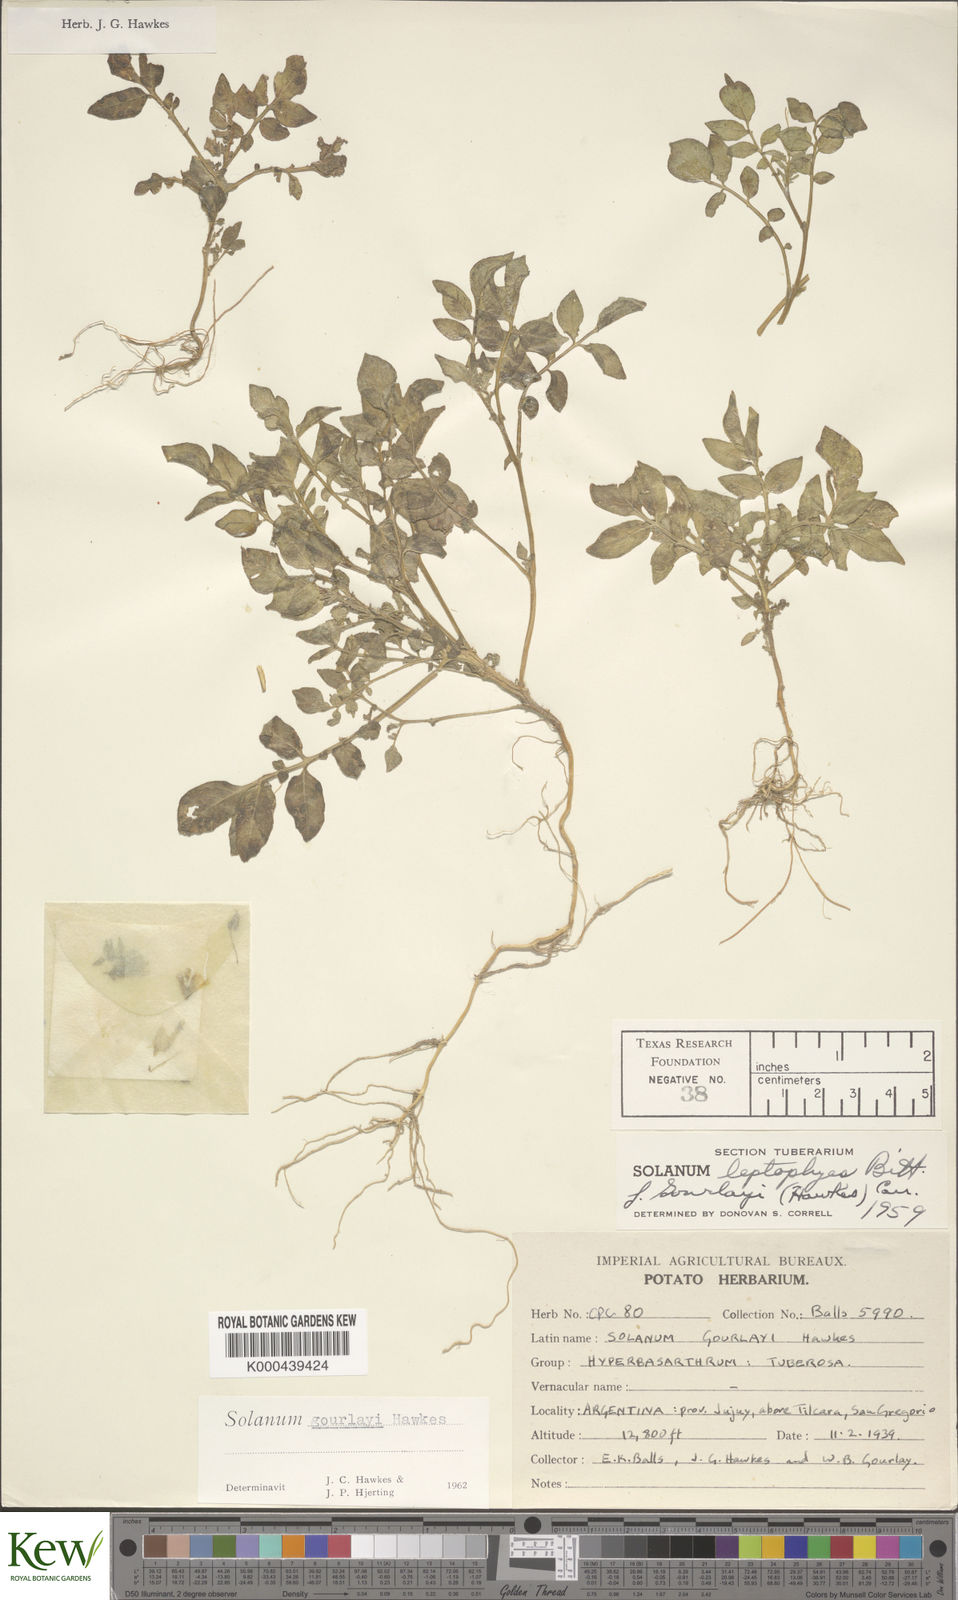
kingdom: Plantae
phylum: Tracheophyta
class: Magnoliopsida
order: Solanales
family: Solanaceae
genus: Solanum
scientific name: Solanum brevicaule
